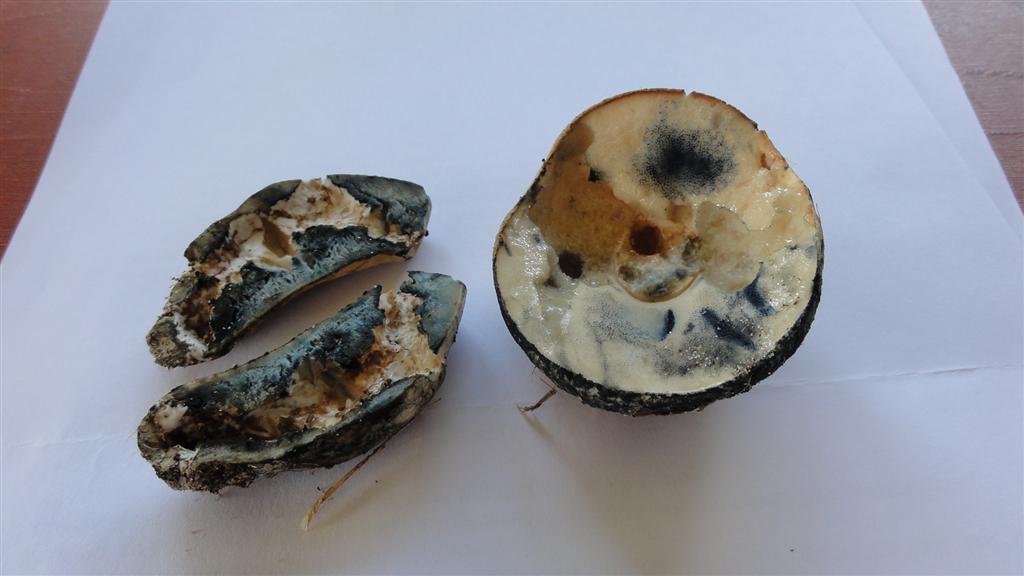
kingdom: Fungi
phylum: Basidiomycota
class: Agaricomycetes
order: Boletales
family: Gyroporaceae
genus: Gyroporus
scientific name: Gyroporus cyanescens
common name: blånende kammerrørhat
